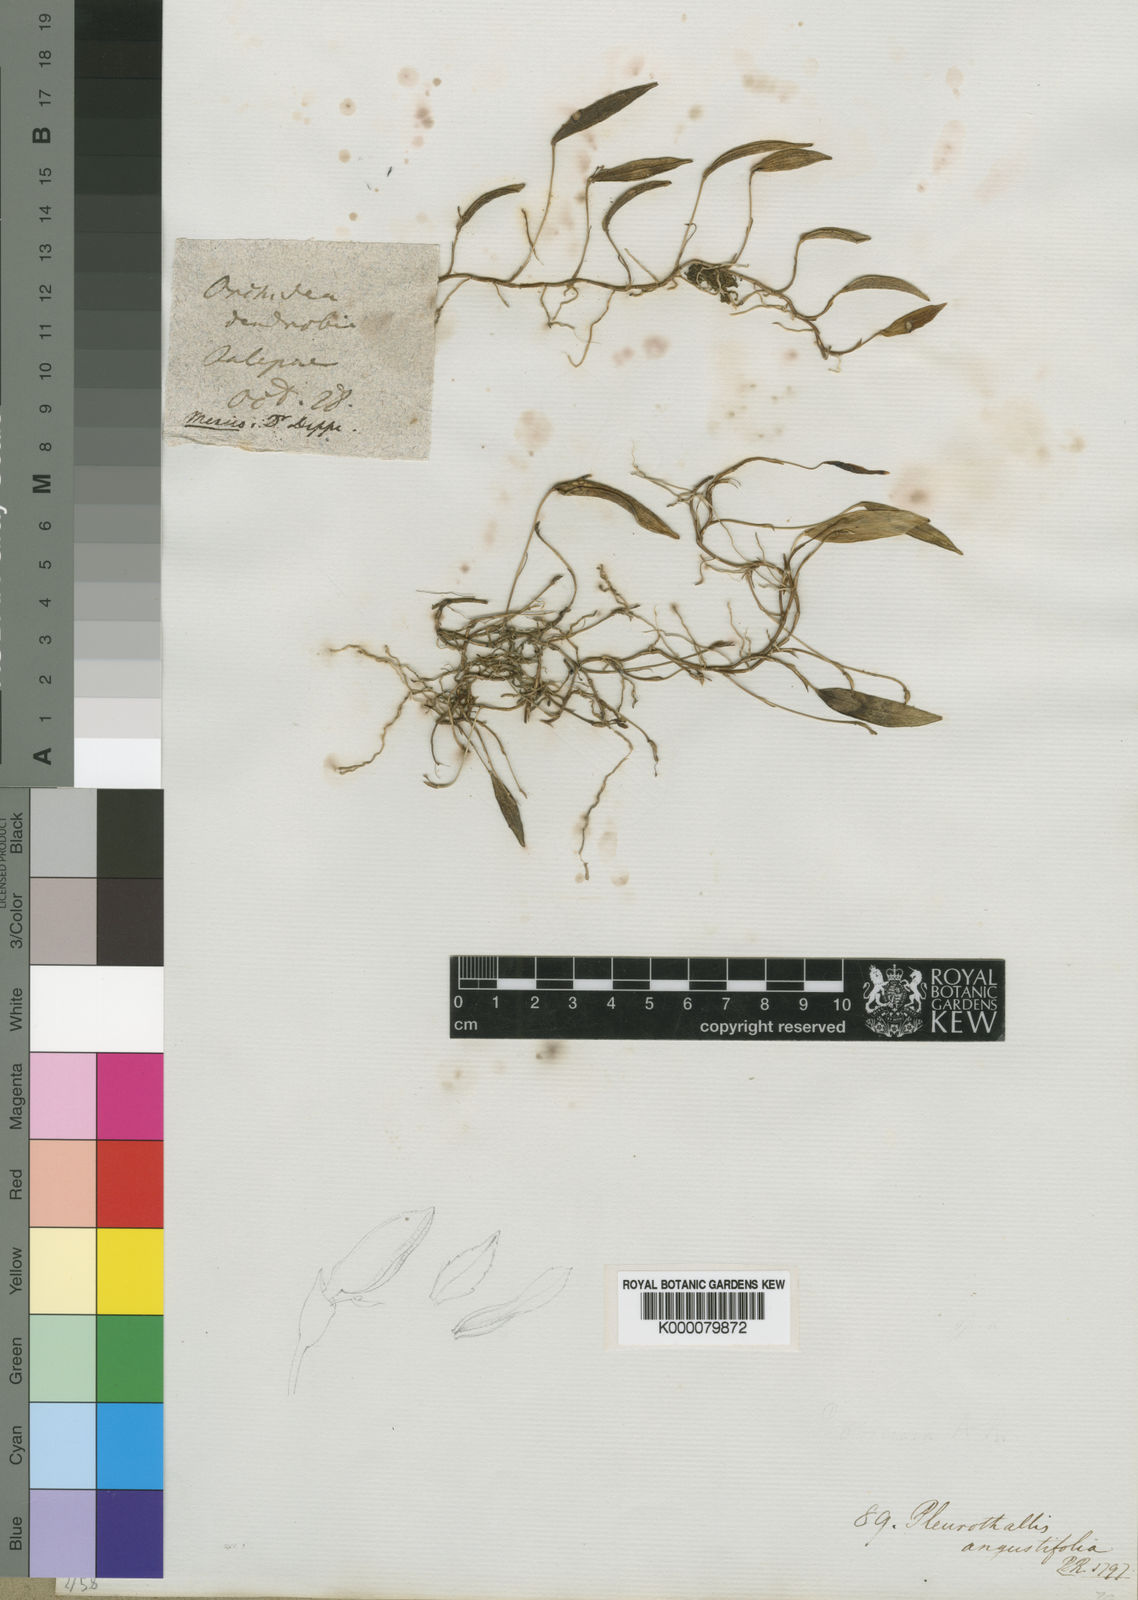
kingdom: Plantae
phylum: Tracheophyta
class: Liliopsida
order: Asparagales
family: Orchidaceae
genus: Acianthera
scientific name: Acianthera angustifolia
